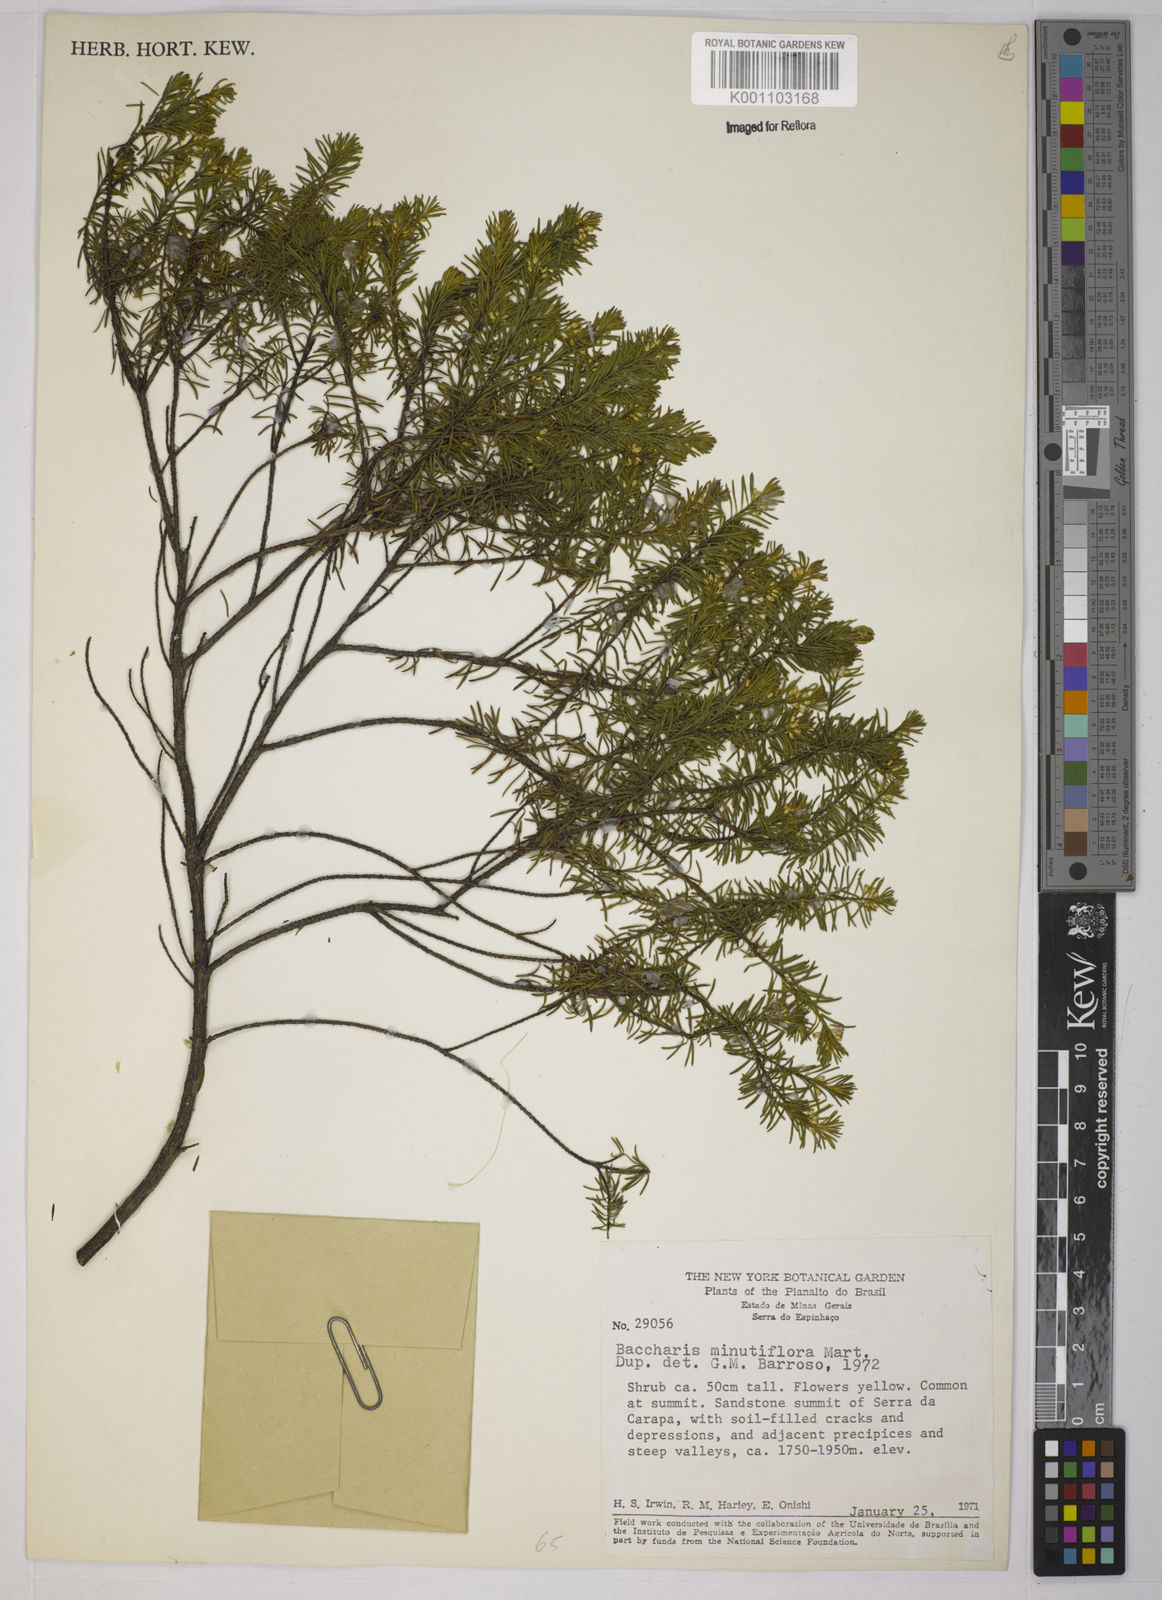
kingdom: Plantae
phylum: Tracheophyta
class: Magnoliopsida
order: Asterales
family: Asteraceae
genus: Baccharis
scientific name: Baccharis minutiflora
